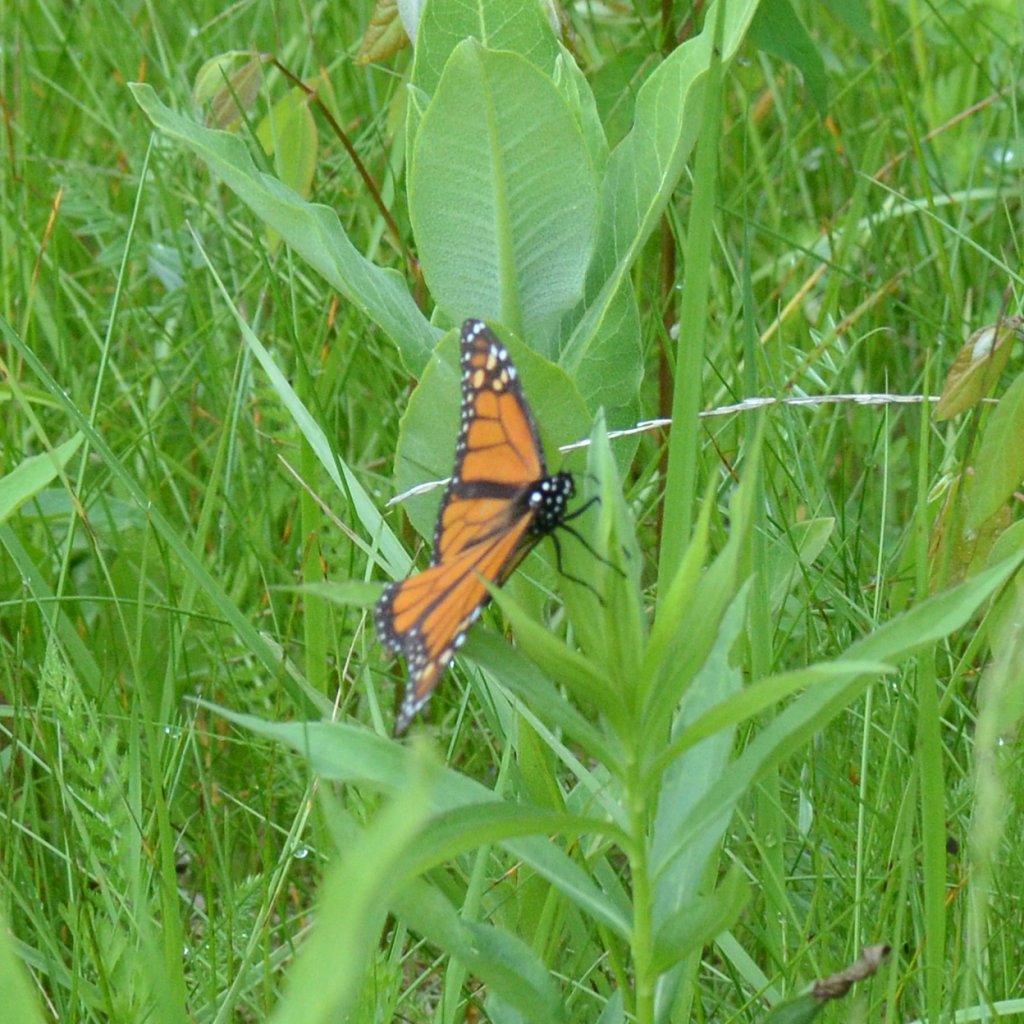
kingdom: Animalia
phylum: Arthropoda
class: Insecta
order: Lepidoptera
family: Nymphalidae
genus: Danaus
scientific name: Danaus plexippus
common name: Monarch
